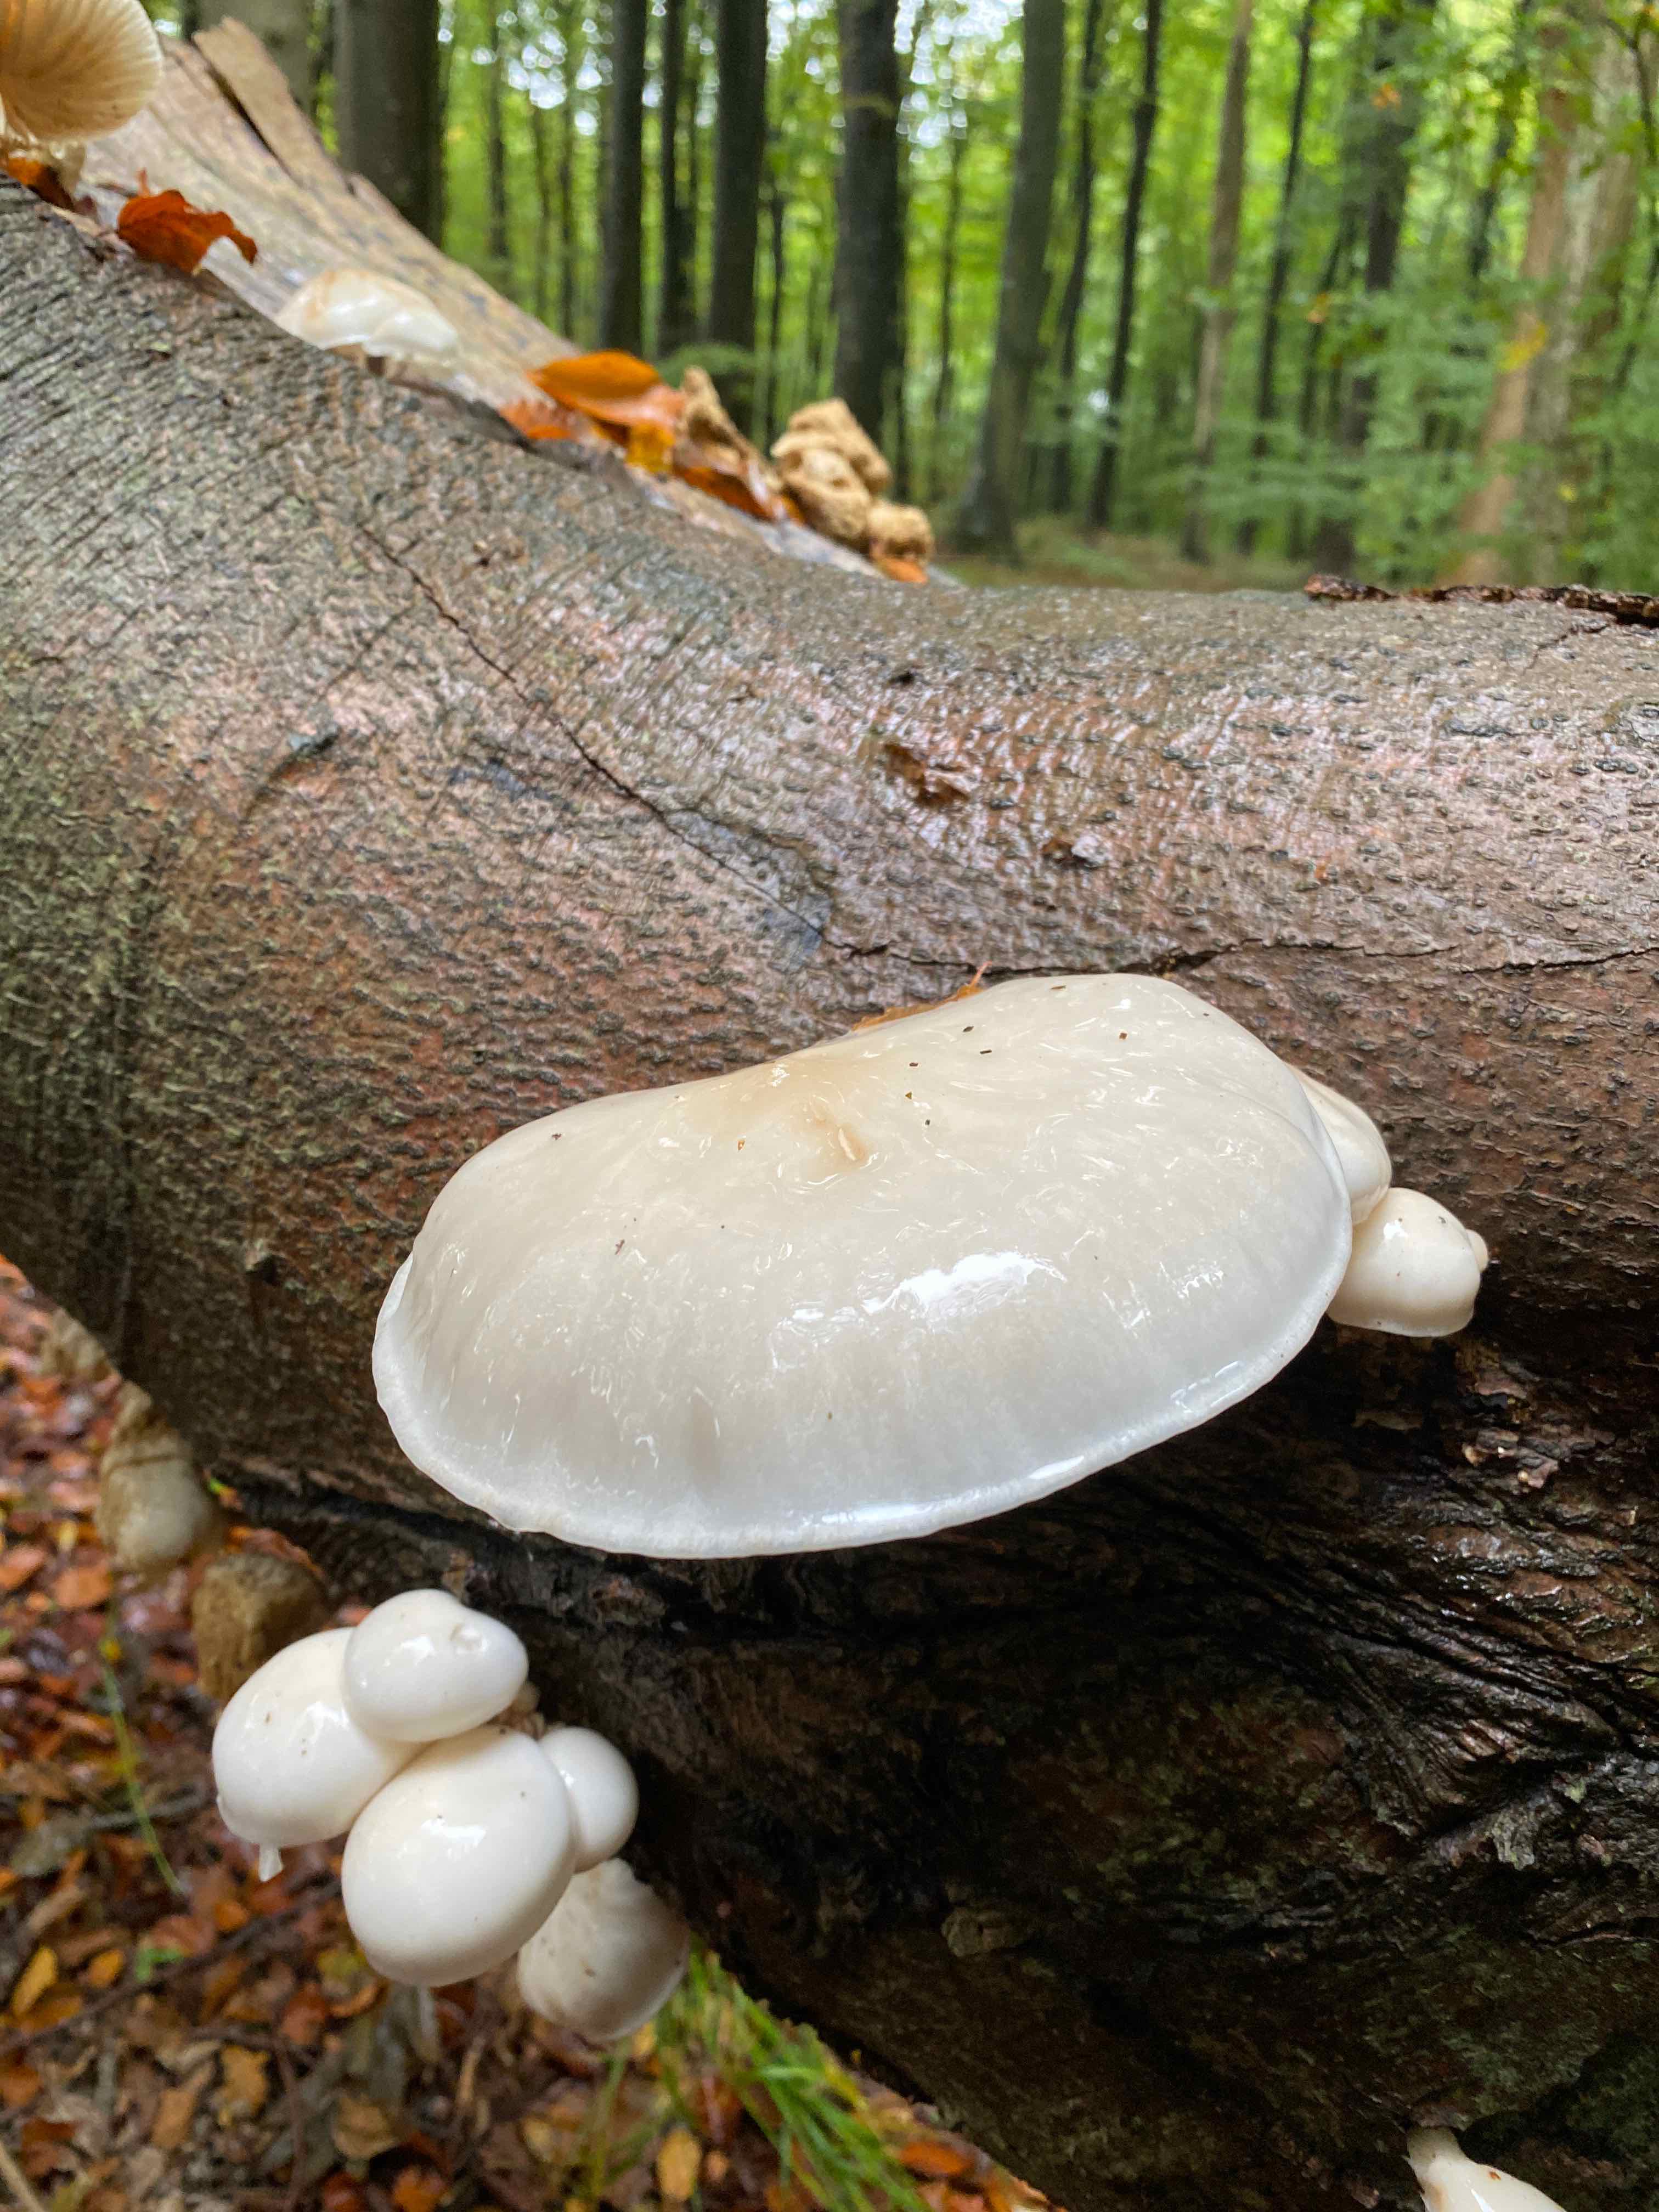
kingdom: Fungi
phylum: Basidiomycota
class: Agaricomycetes
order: Agaricales
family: Physalacriaceae
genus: Mucidula
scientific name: Mucidula mucida
